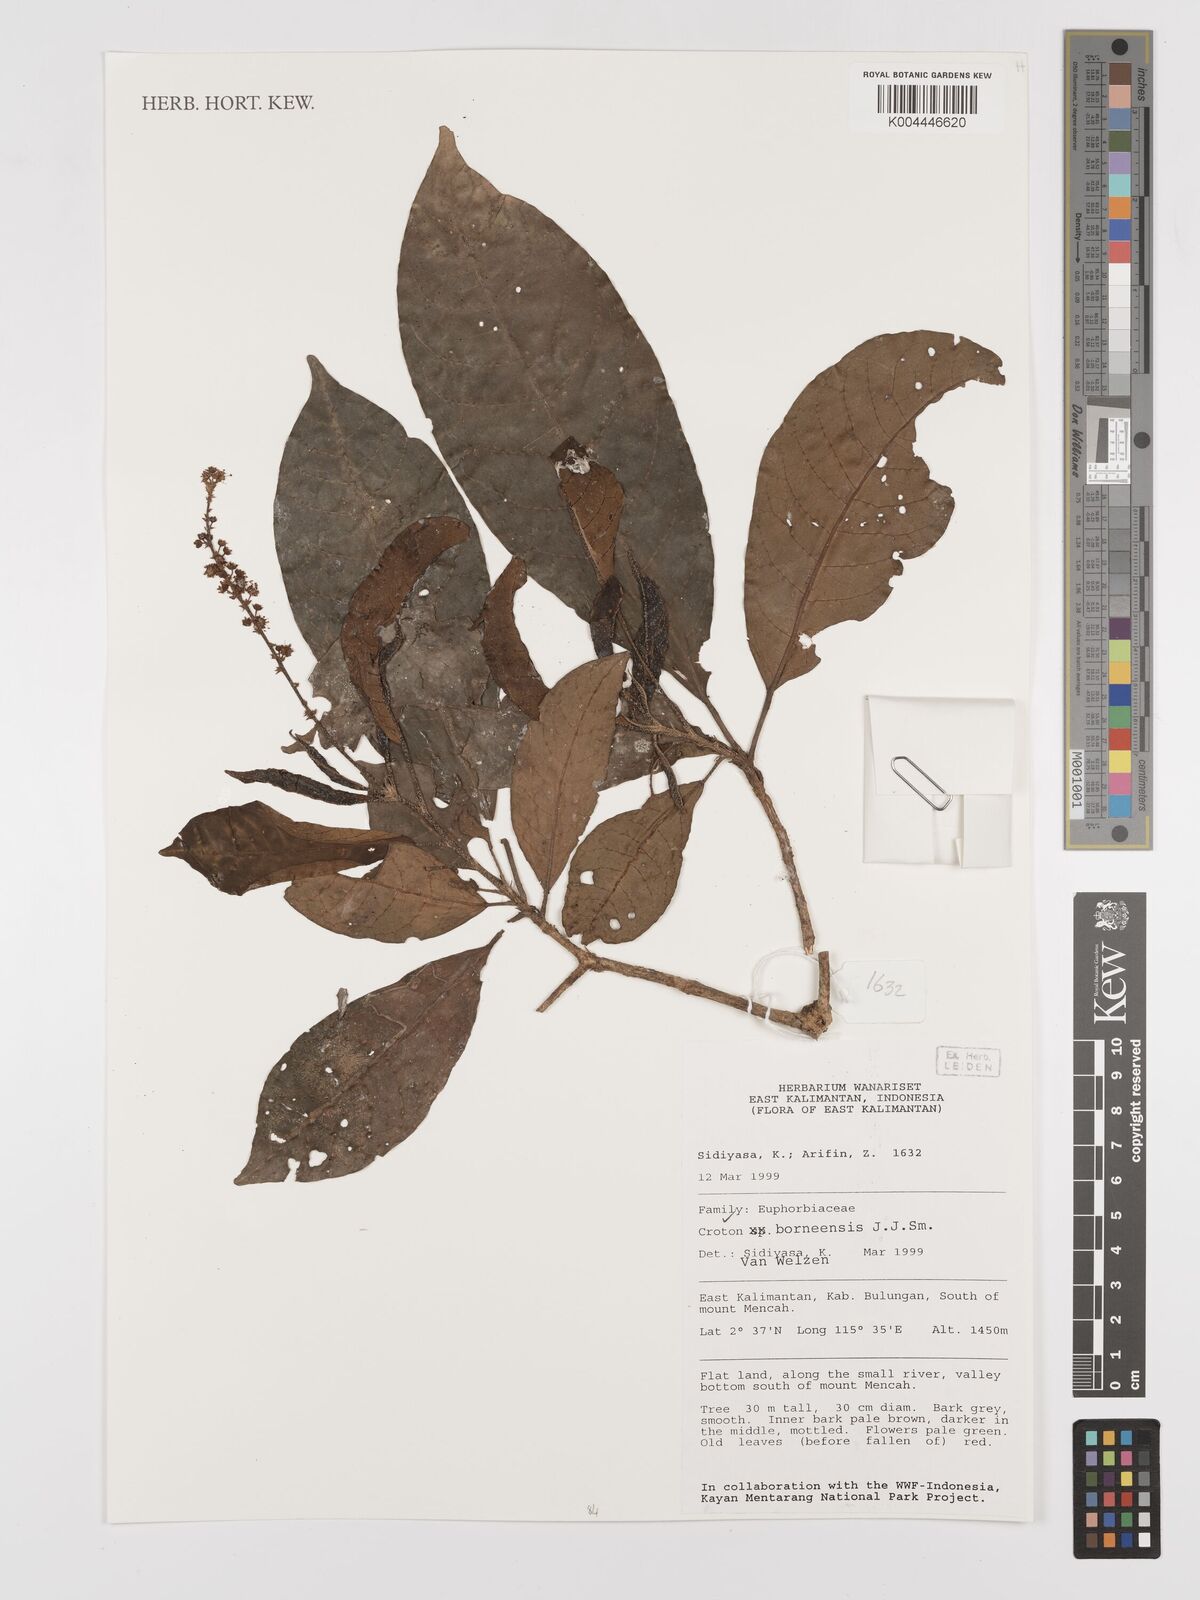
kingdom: Plantae
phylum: Tracheophyta
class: Magnoliopsida
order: Malpighiales
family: Euphorbiaceae
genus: Croton
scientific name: Croton borneensis
